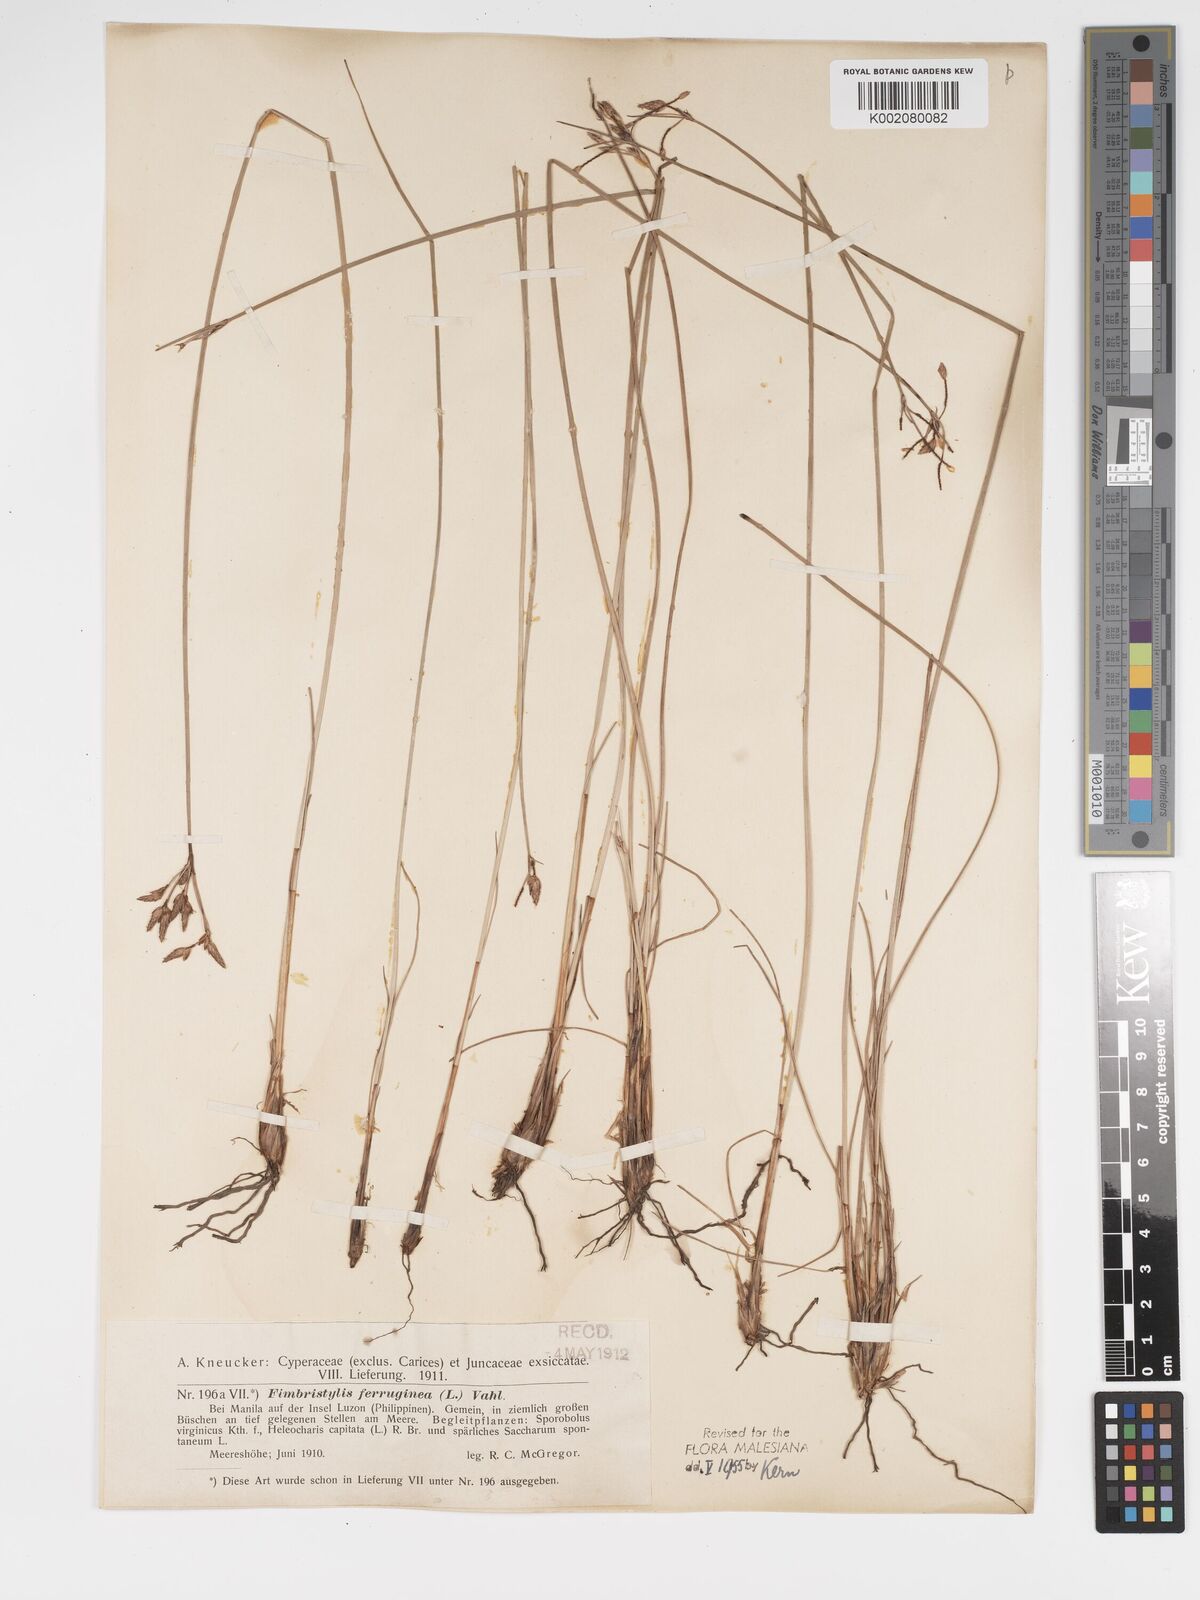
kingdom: Plantae
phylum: Tracheophyta
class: Liliopsida
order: Poales
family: Cyperaceae
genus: Fimbristylis
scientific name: Fimbristylis ferruginea
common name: West indian fimbry
